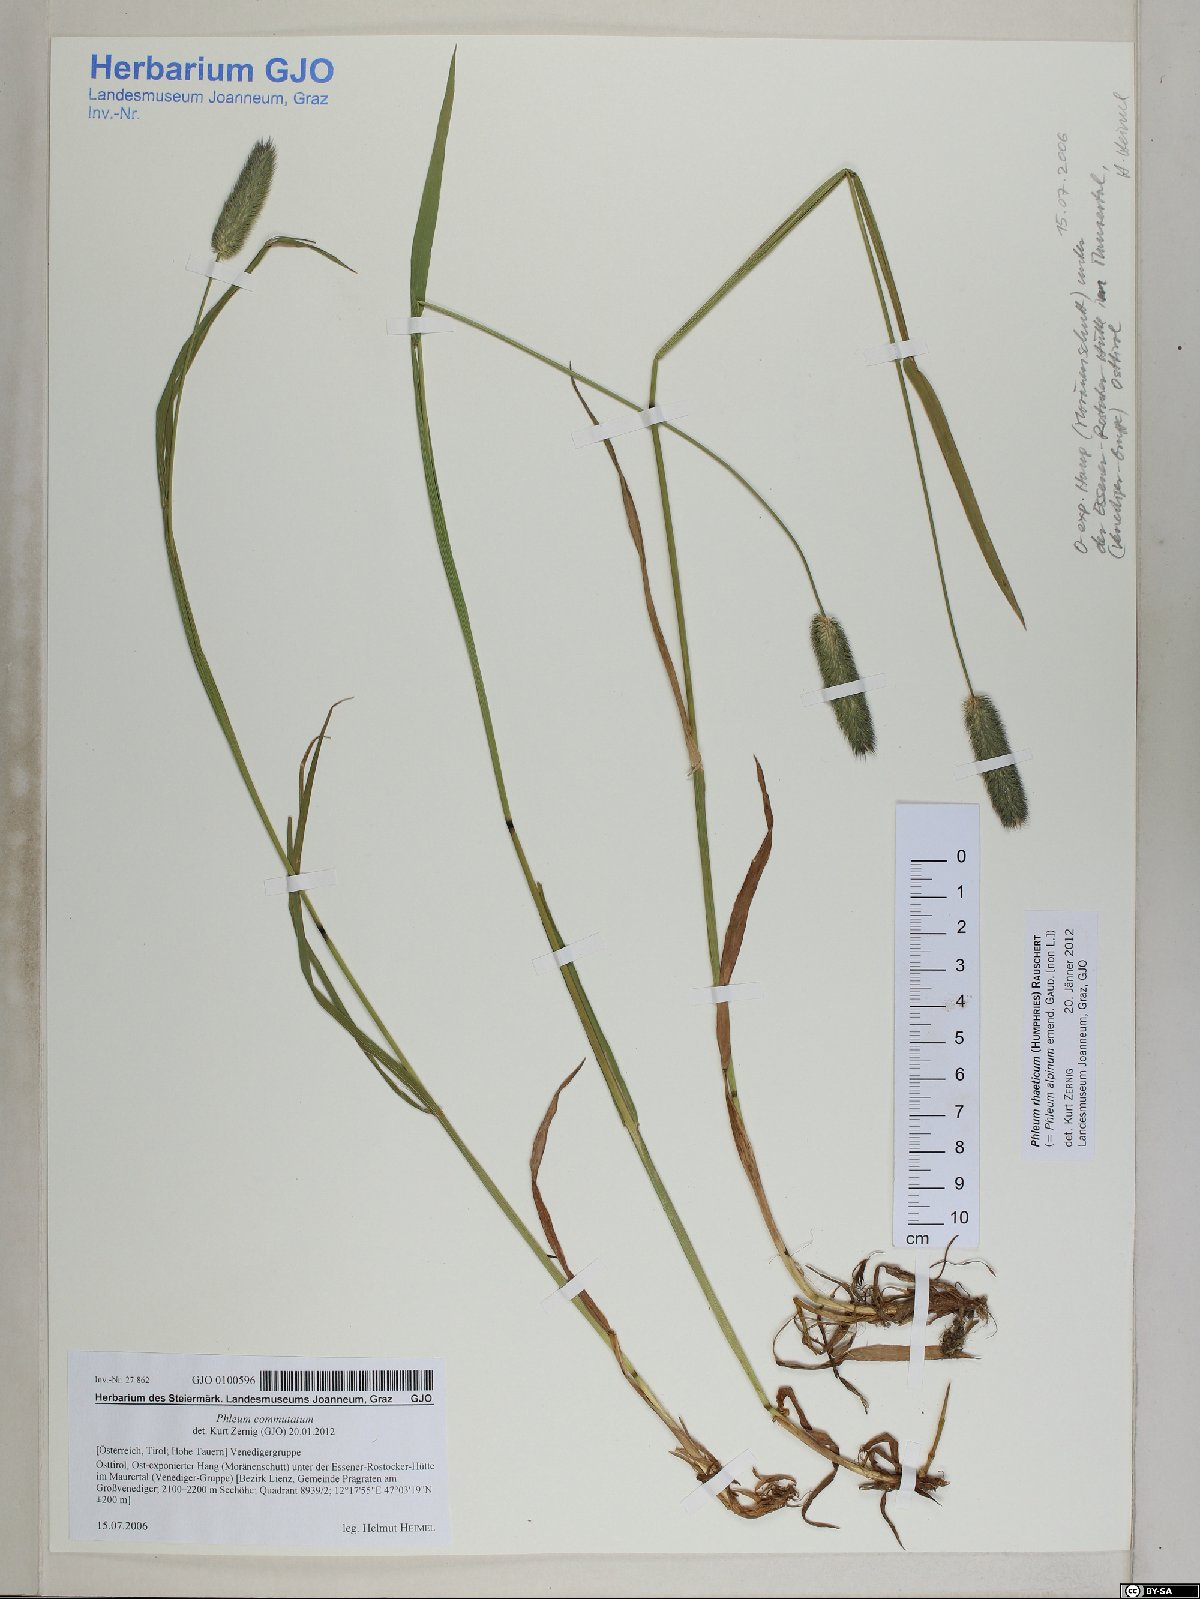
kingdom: Plantae
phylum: Tracheophyta
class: Liliopsida
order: Poales
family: Poaceae
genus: Phleum
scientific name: Phleum alpinum
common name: Alpine cat's-tail
